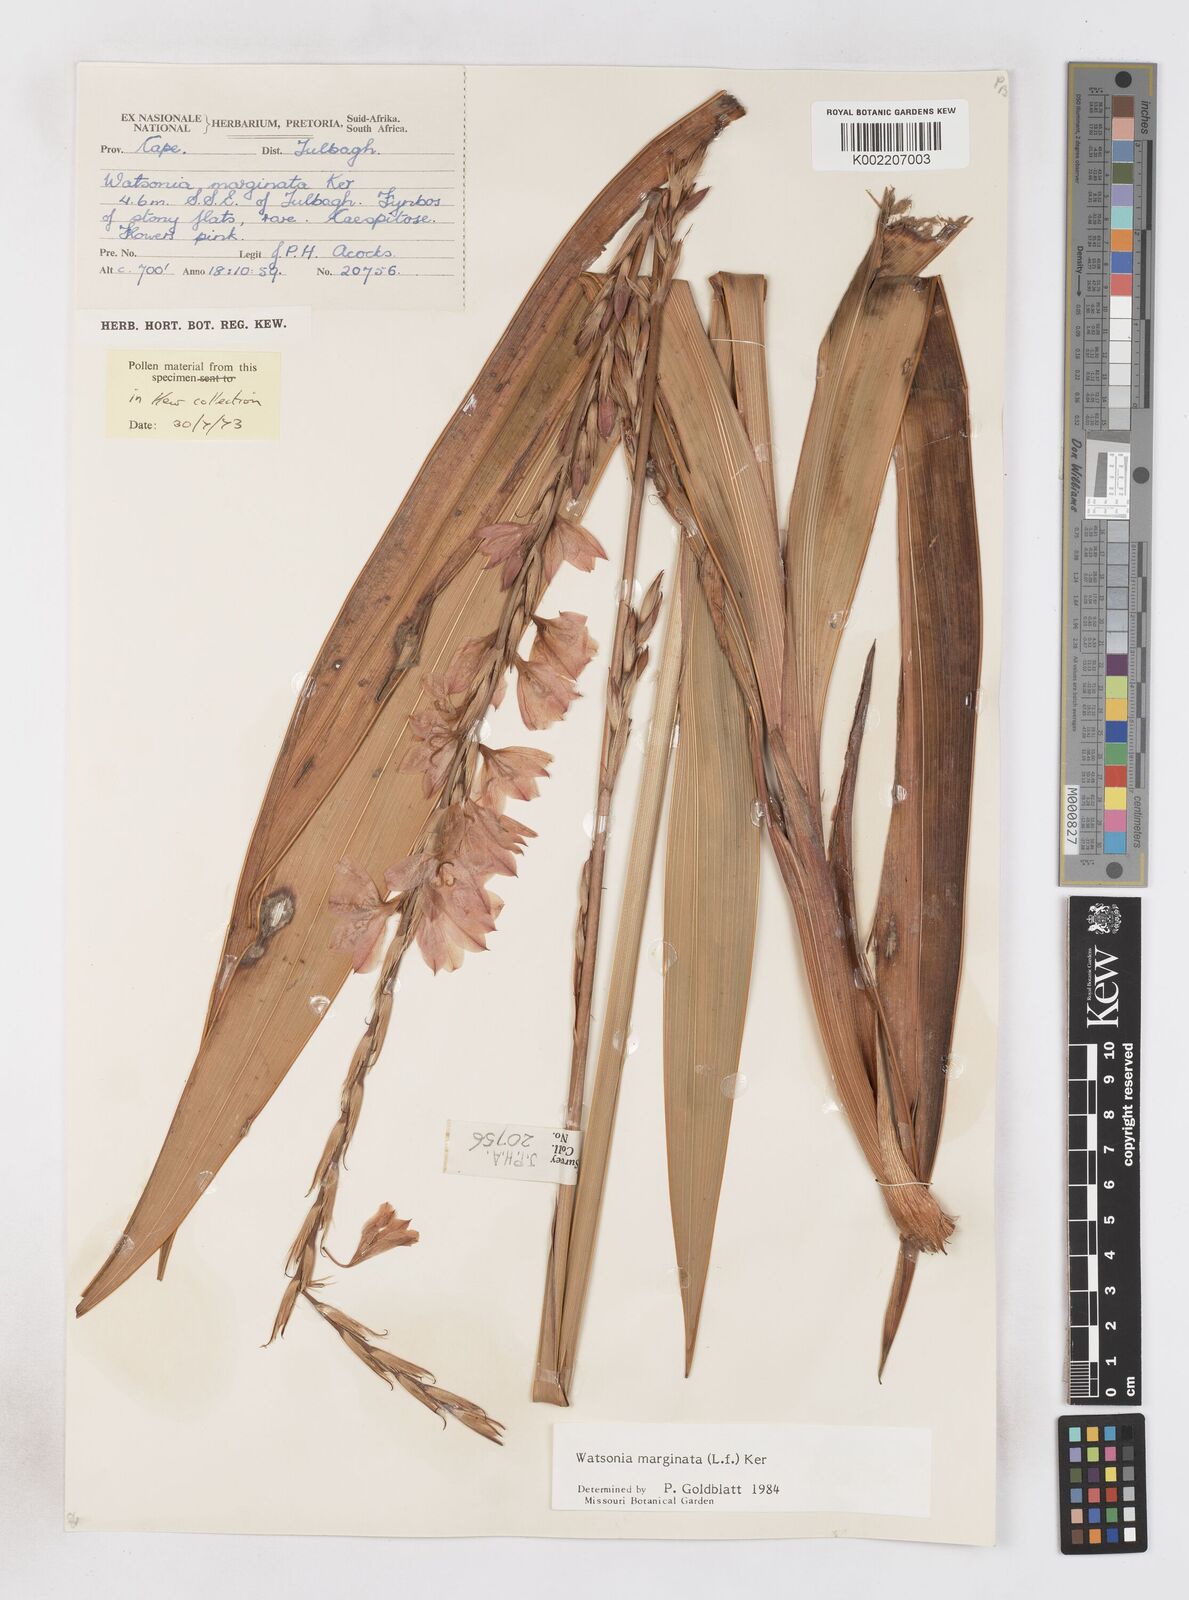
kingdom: Plantae
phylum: Tracheophyta
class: Liliopsida
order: Asparagales
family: Iridaceae
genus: Watsonia
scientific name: Watsonia marginata
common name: Fragrant bugle-lily
